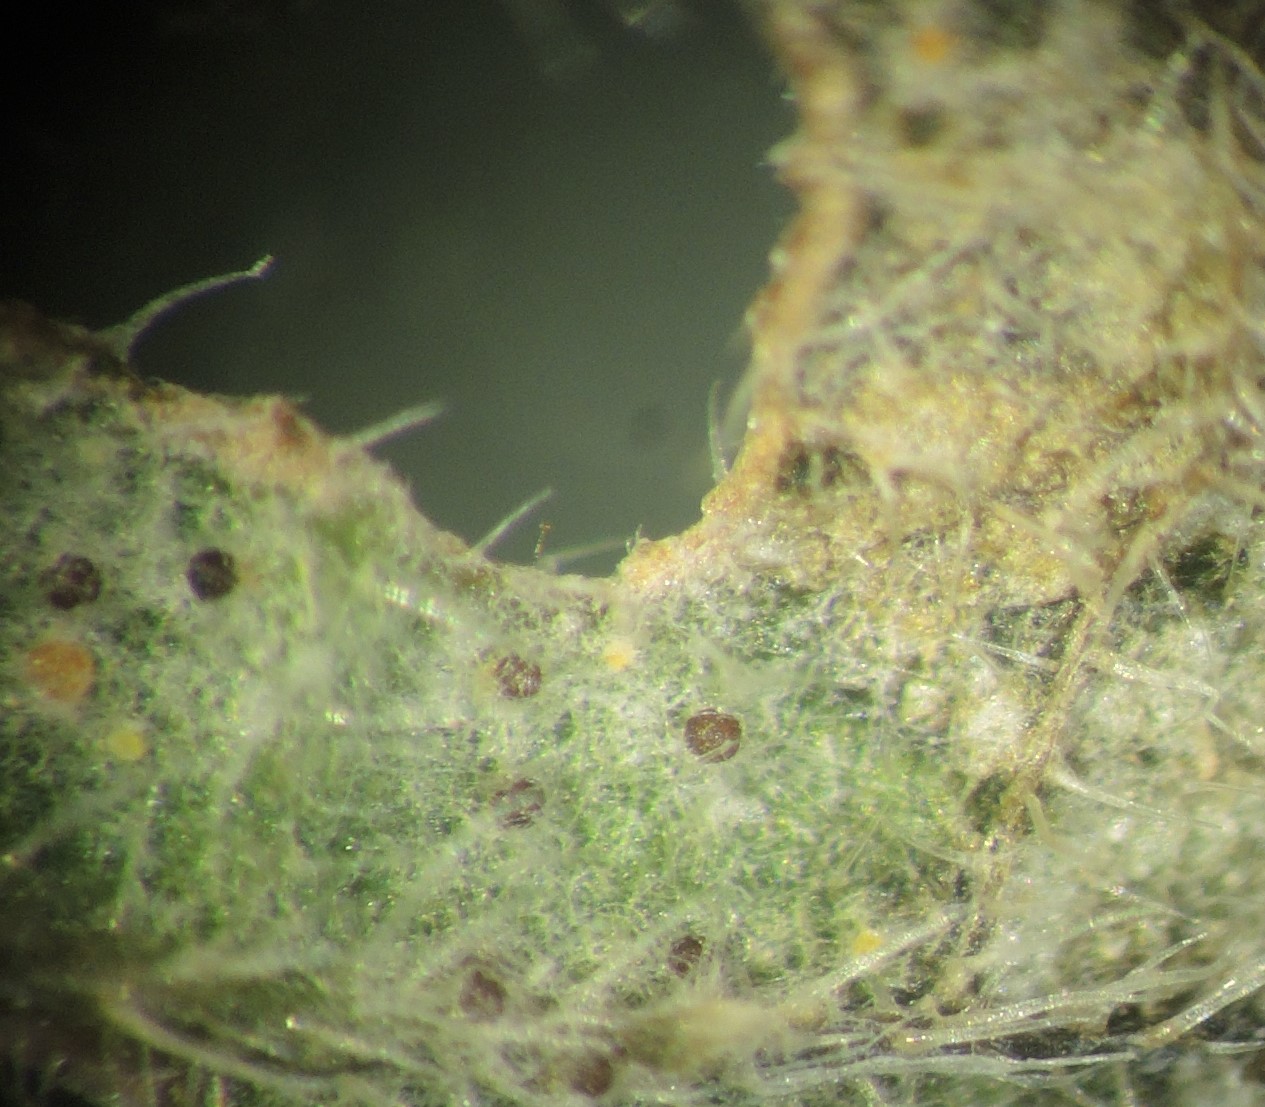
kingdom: Fungi
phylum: Ascomycota
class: Leotiomycetes
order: Helotiales
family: Erysiphaceae
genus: Erysiphe
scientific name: Erysiphe urticae
